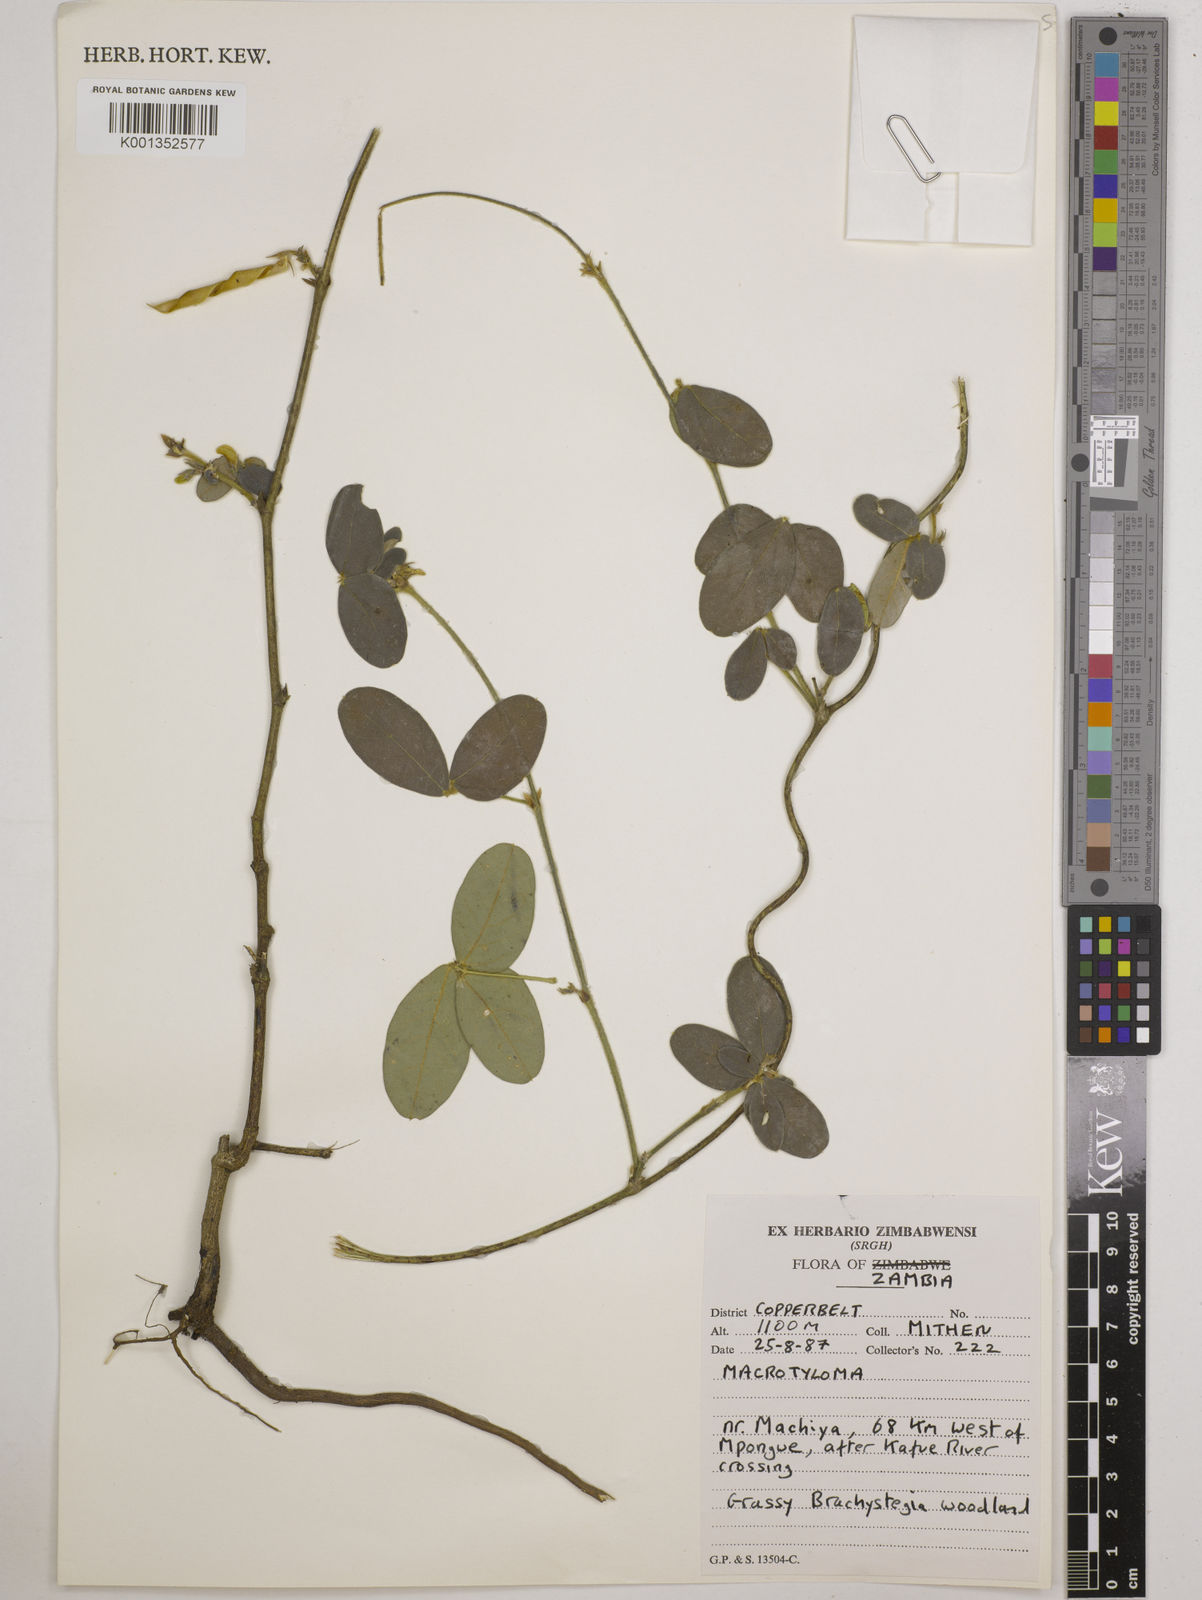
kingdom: Plantae
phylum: Tracheophyta
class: Magnoliopsida
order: Fabales
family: Fabaceae
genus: Macrotyloma
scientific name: Macrotyloma rupestre
